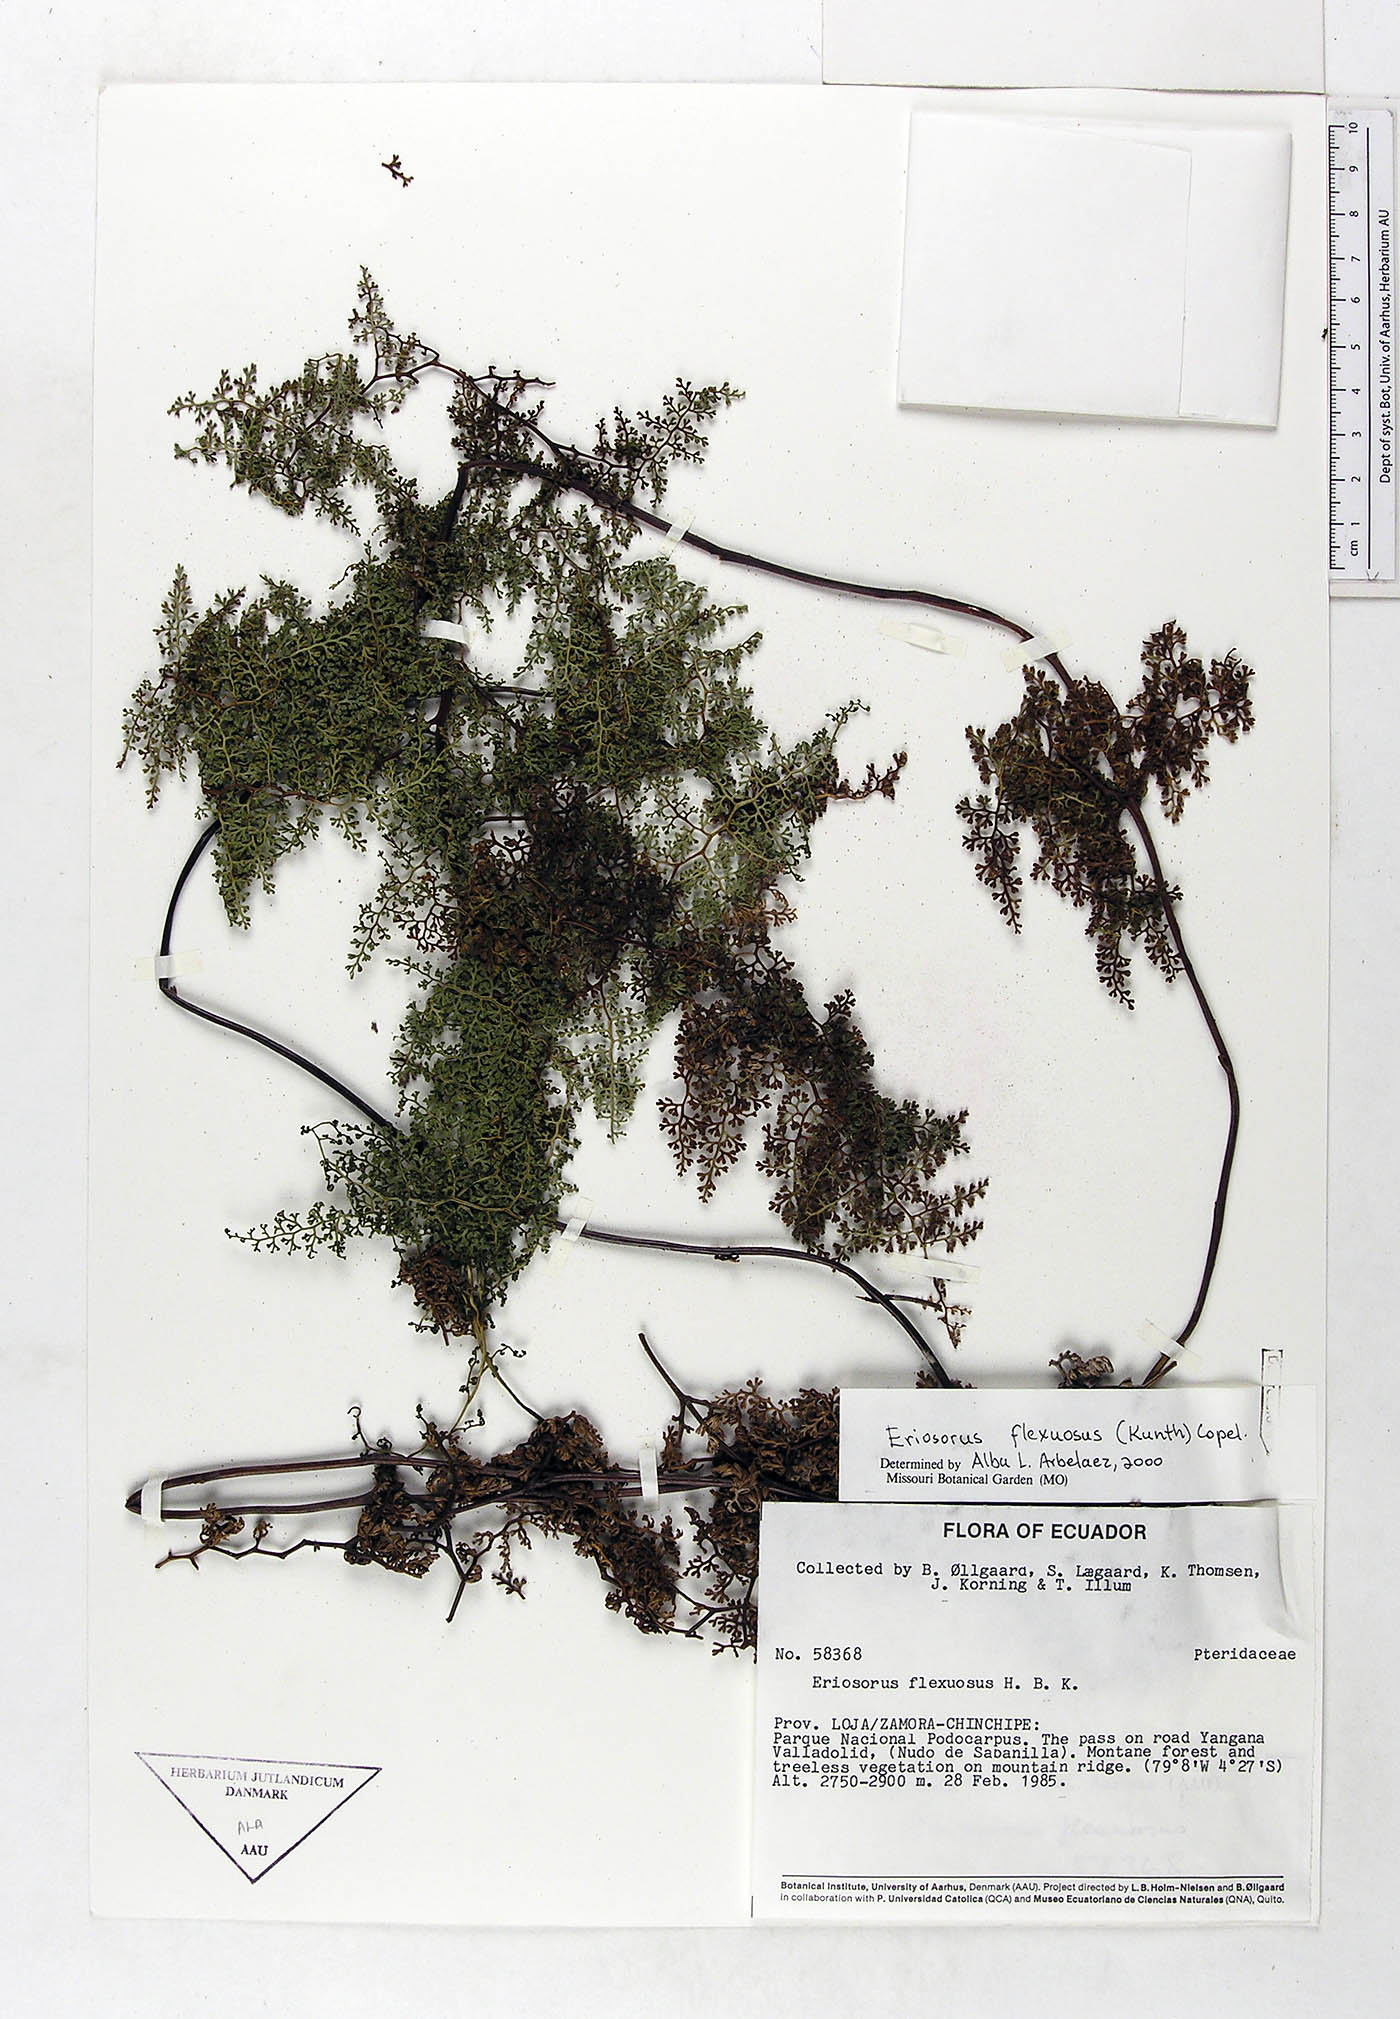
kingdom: Plantae
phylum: Tracheophyta
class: Polypodiopsida
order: Polypodiales
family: Pteridaceae
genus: Jamesonia
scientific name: Jamesonia flexuosa
